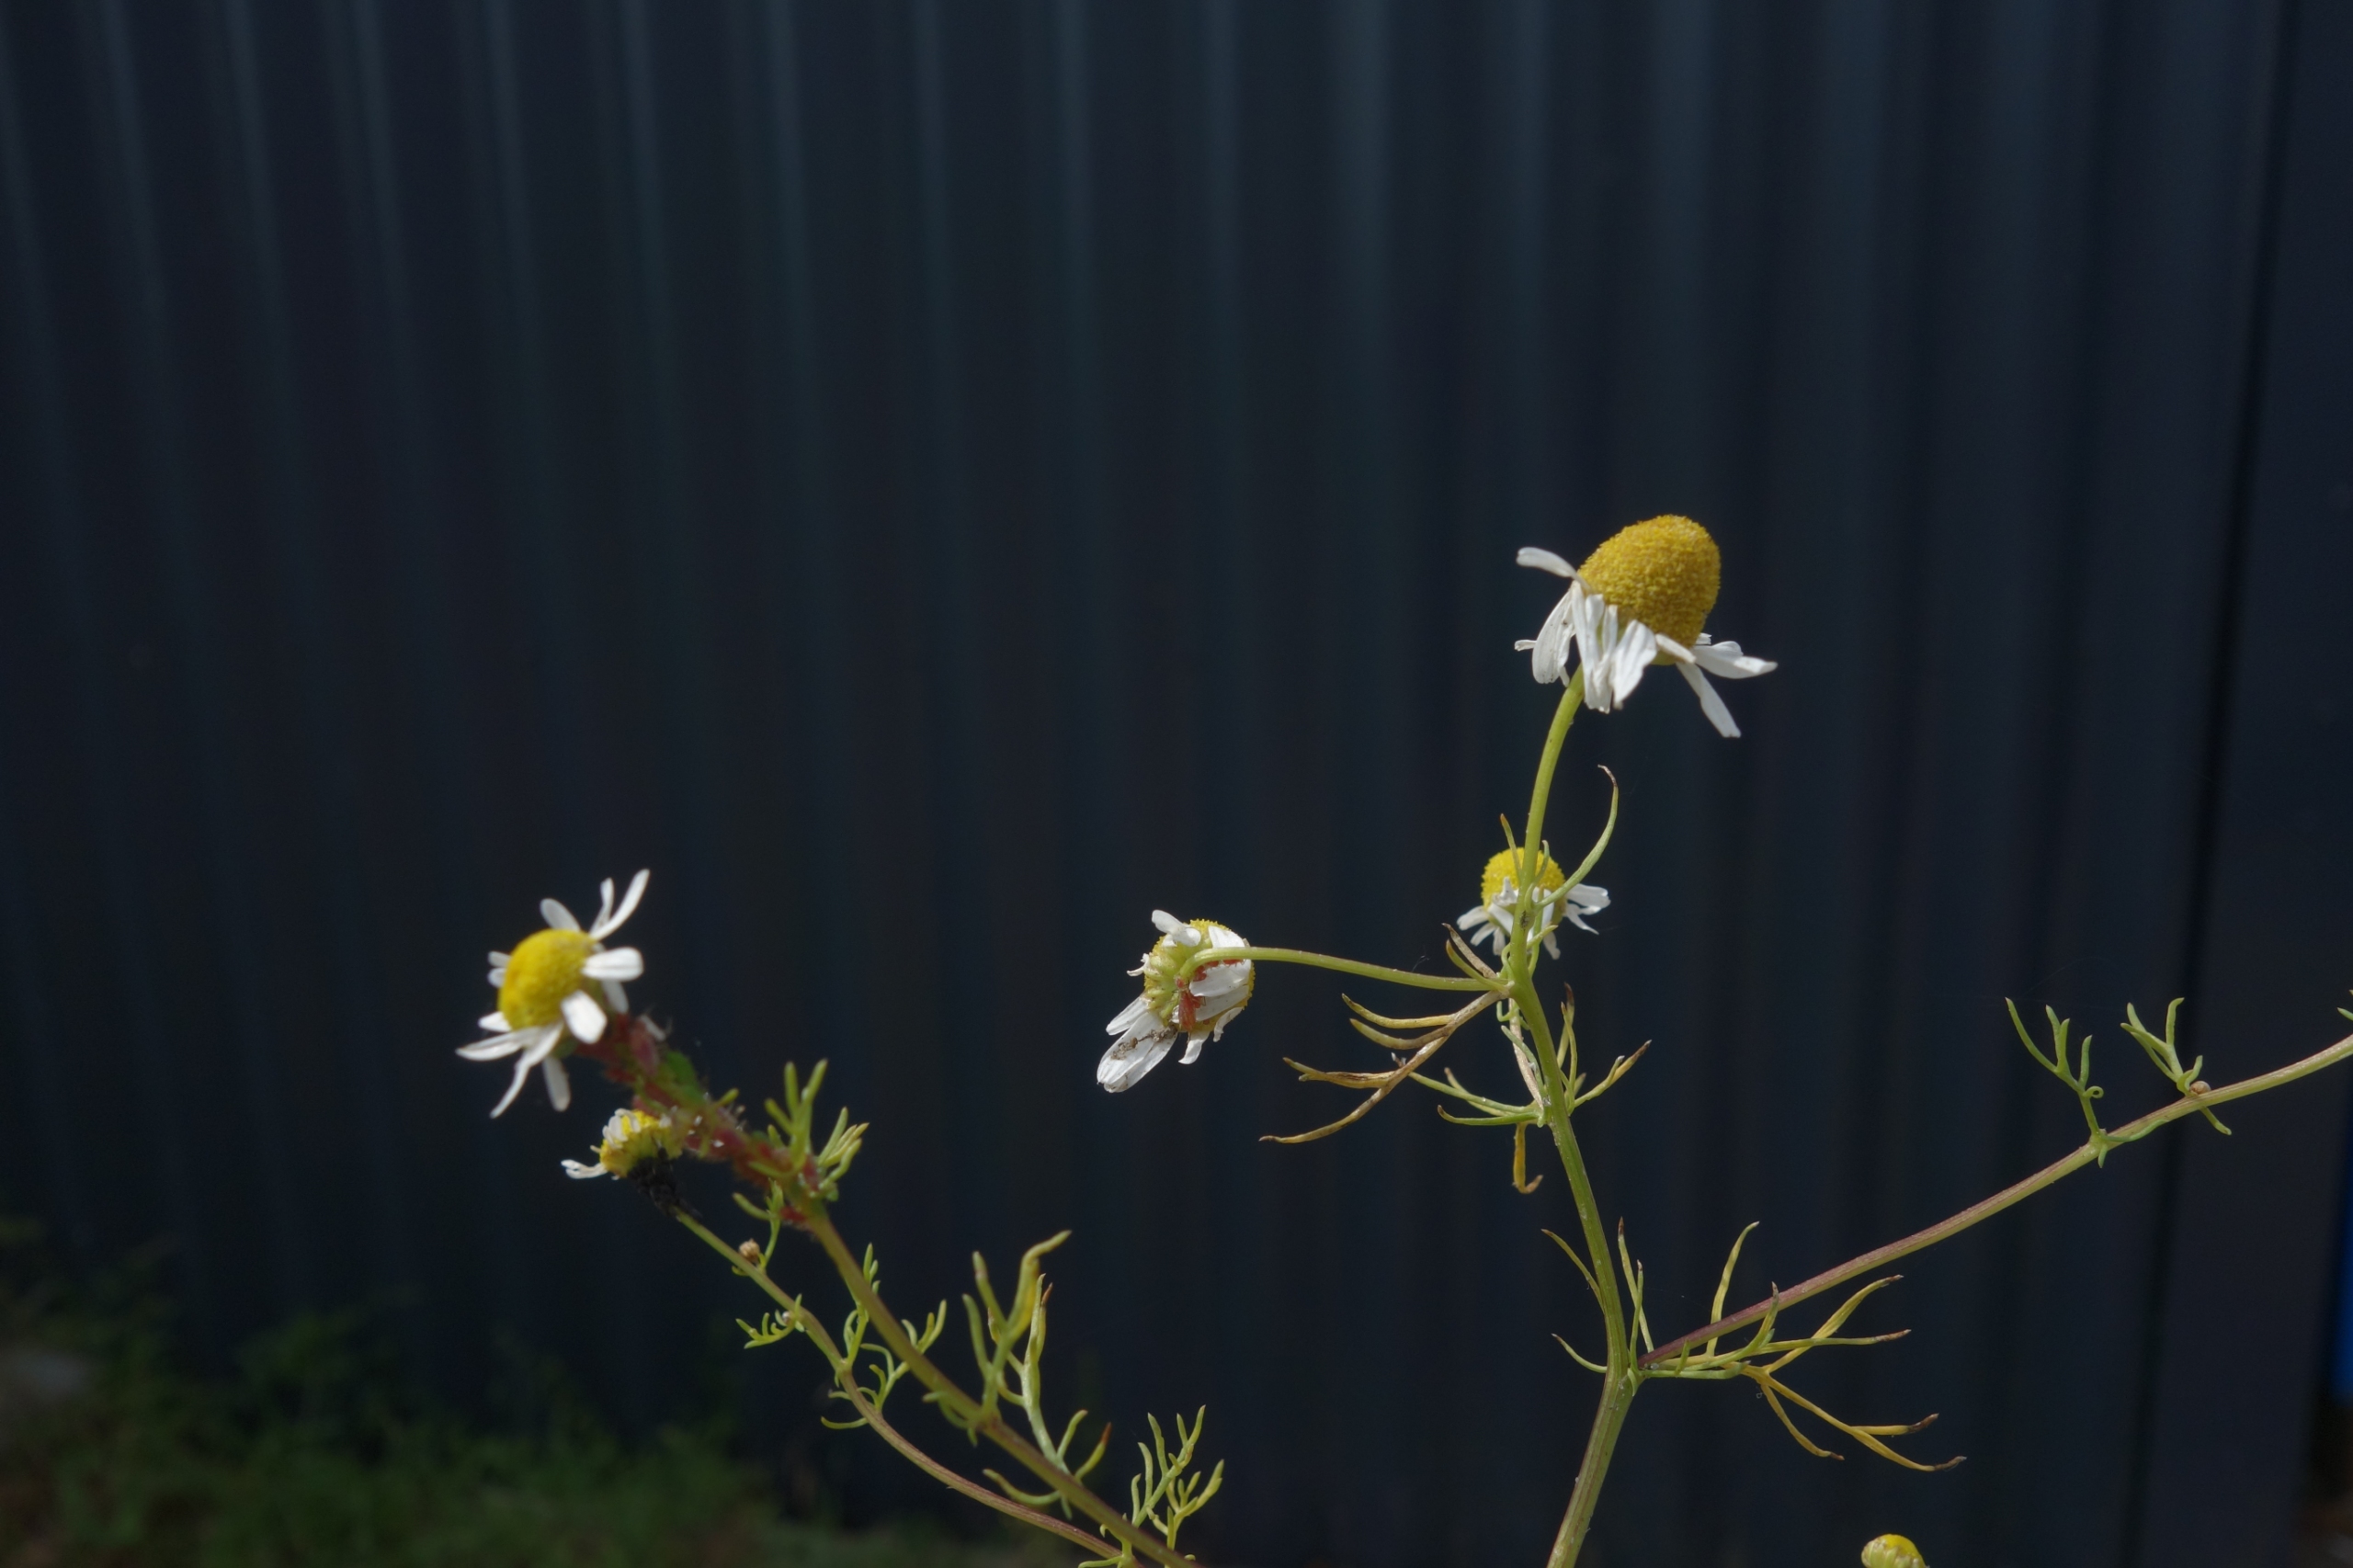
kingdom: Plantae
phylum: Tracheophyta
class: Magnoliopsida
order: Asterales
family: Asteraceae
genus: Matricaria
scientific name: Matricaria chamomilla
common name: Vellugtende kamille
